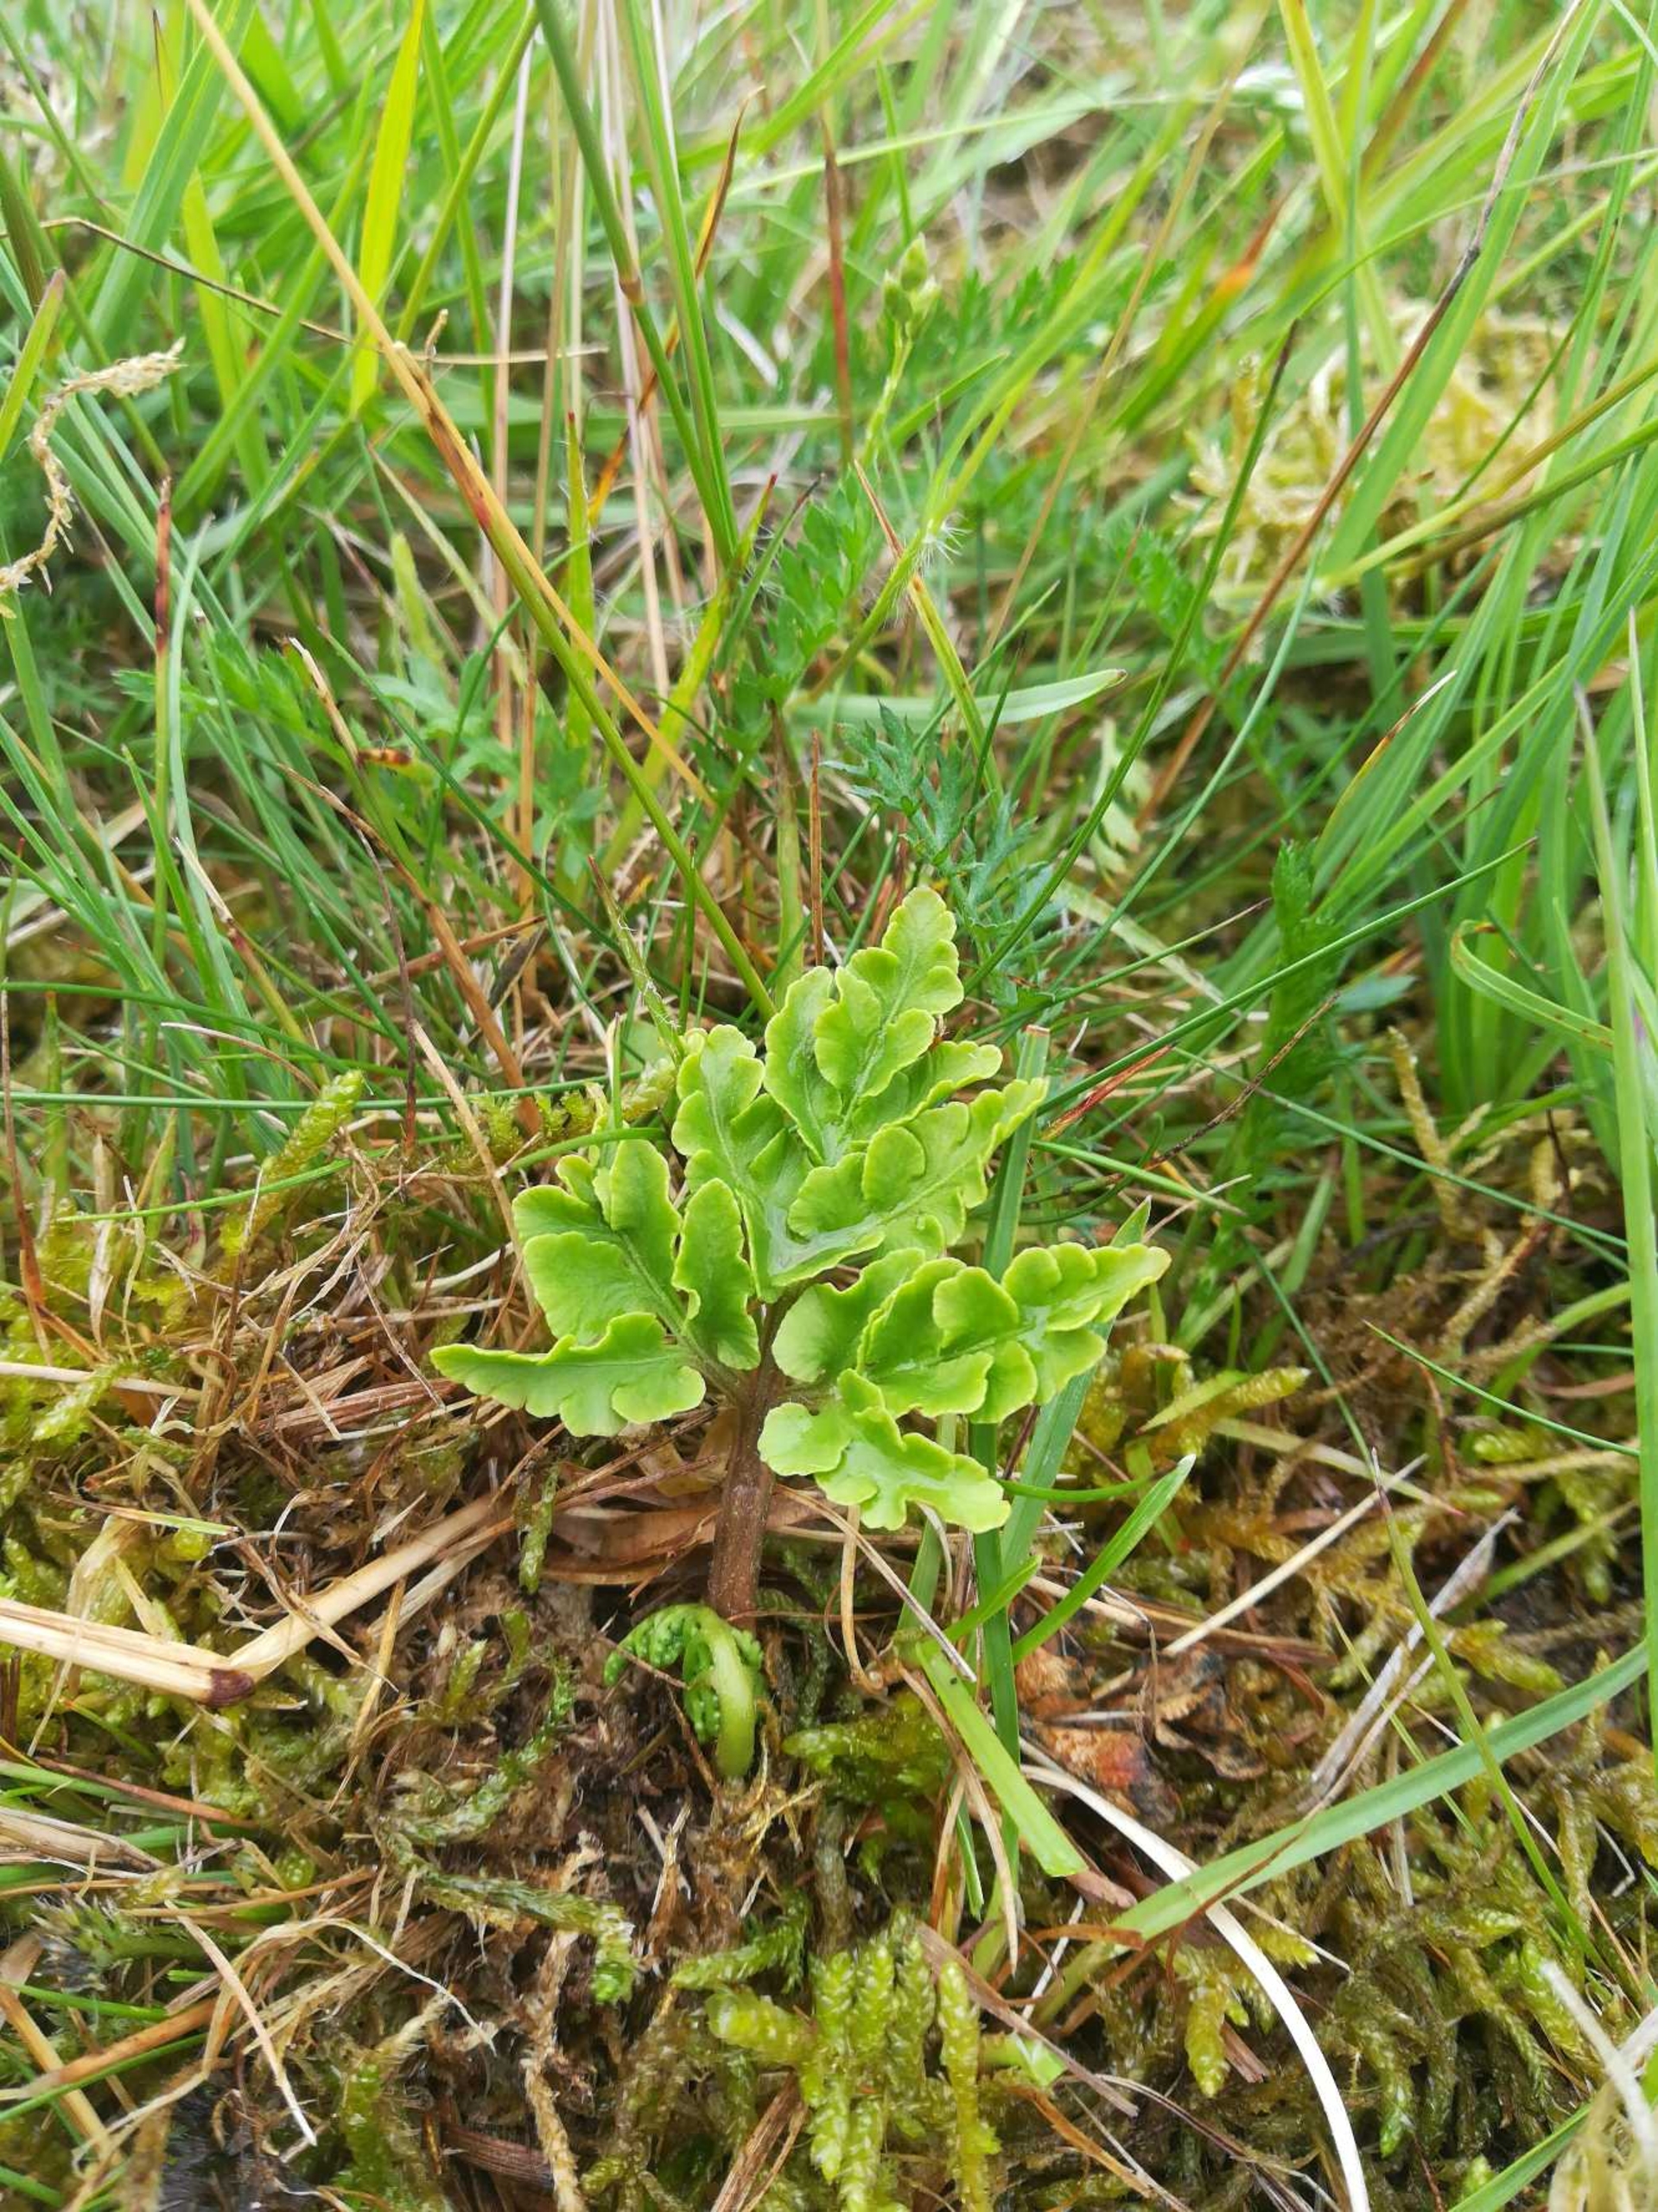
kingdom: Plantae
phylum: Tracheophyta
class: Polypodiopsida
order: Ophioglossales
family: Ophioglossaceae
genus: Sceptridium
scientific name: Sceptridium multifidum
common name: Stilk-månerude
